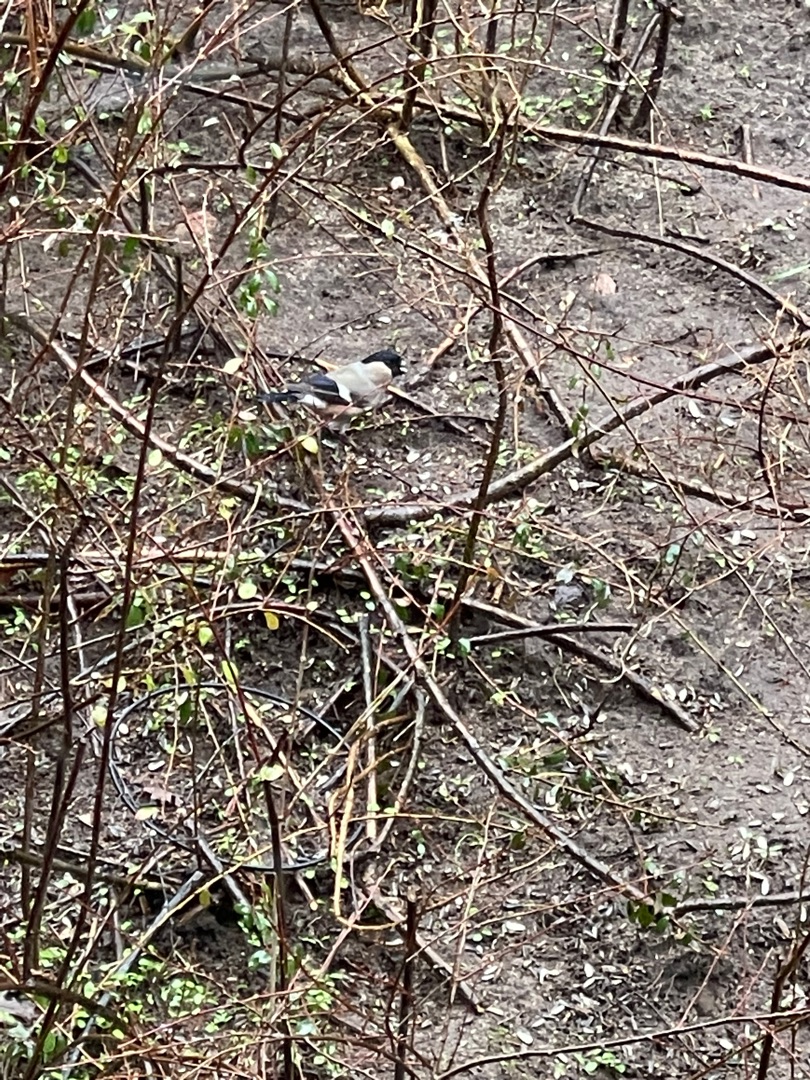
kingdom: Animalia
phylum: Chordata
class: Aves
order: Passeriformes
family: Fringillidae
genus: Pyrrhula
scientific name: Pyrrhula pyrrhula
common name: Dompap
